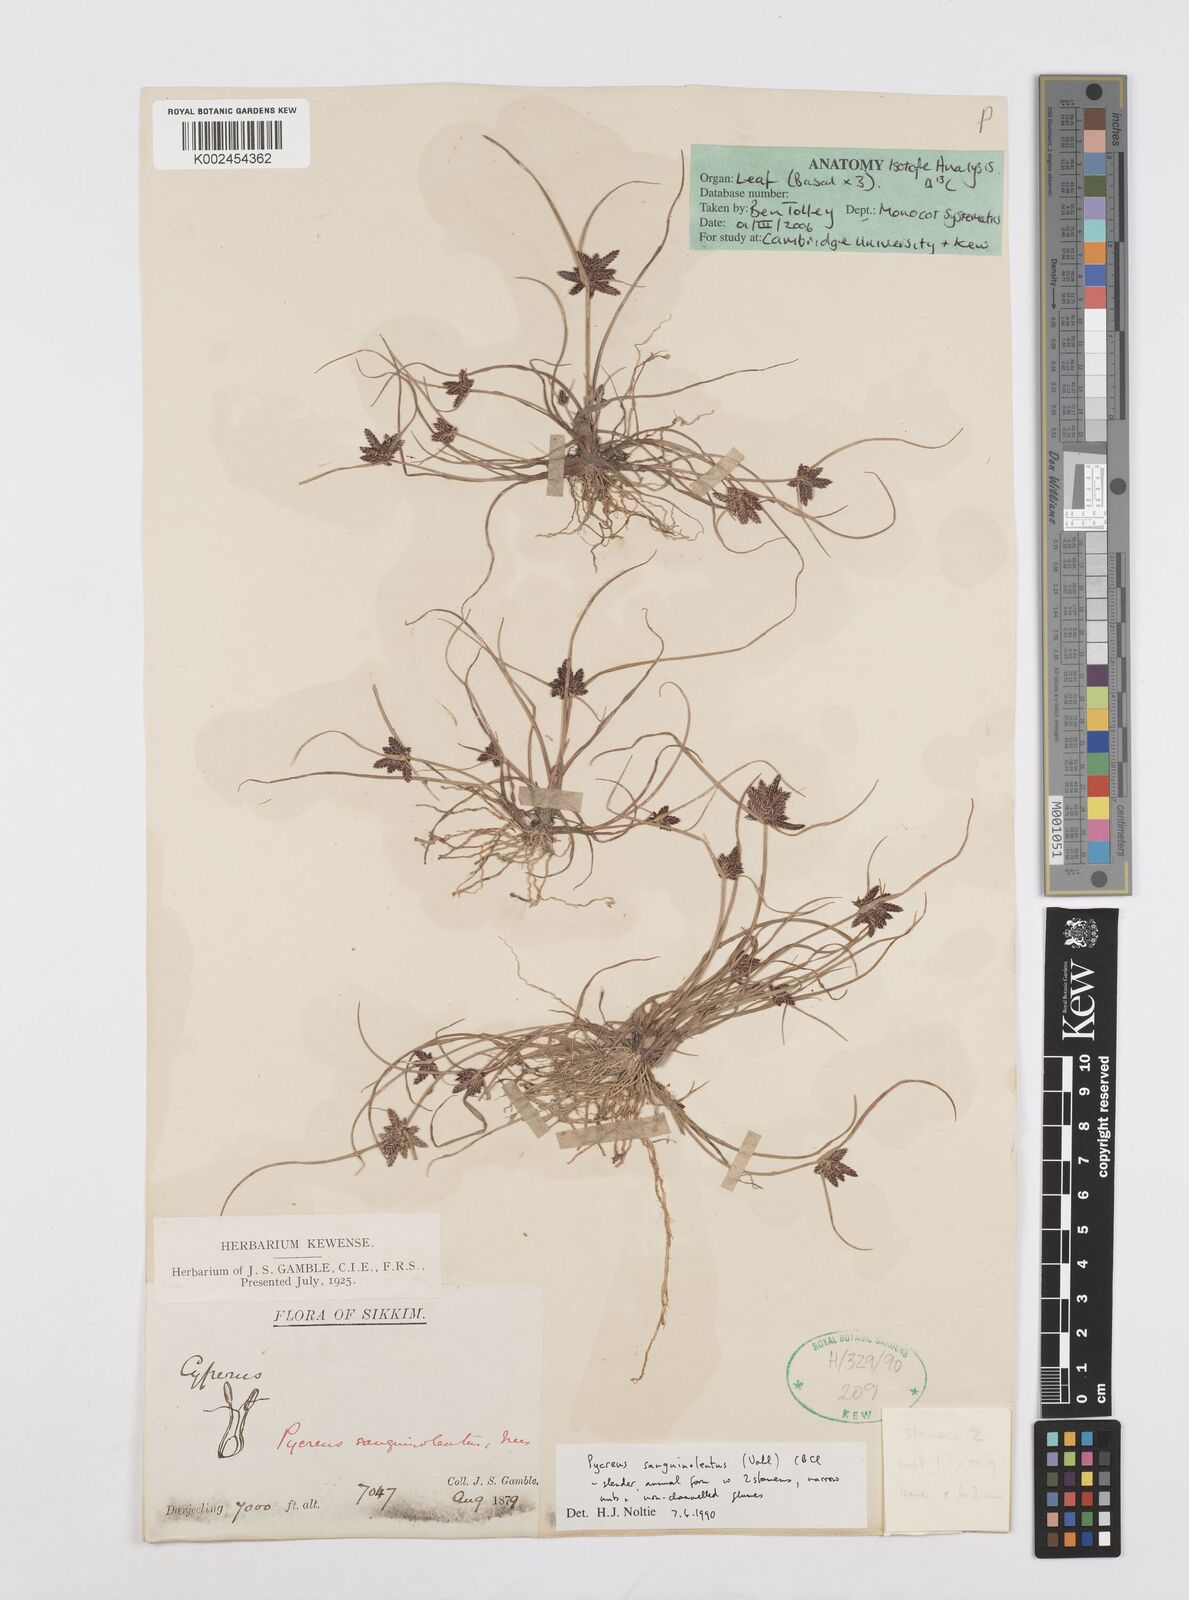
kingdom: Plantae
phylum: Tracheophyta
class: Liliopsida
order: Poales
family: Cyperaceae
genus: Cyperus
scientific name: Cyperus sanguinolentus
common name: Purpleglume flatsedge
